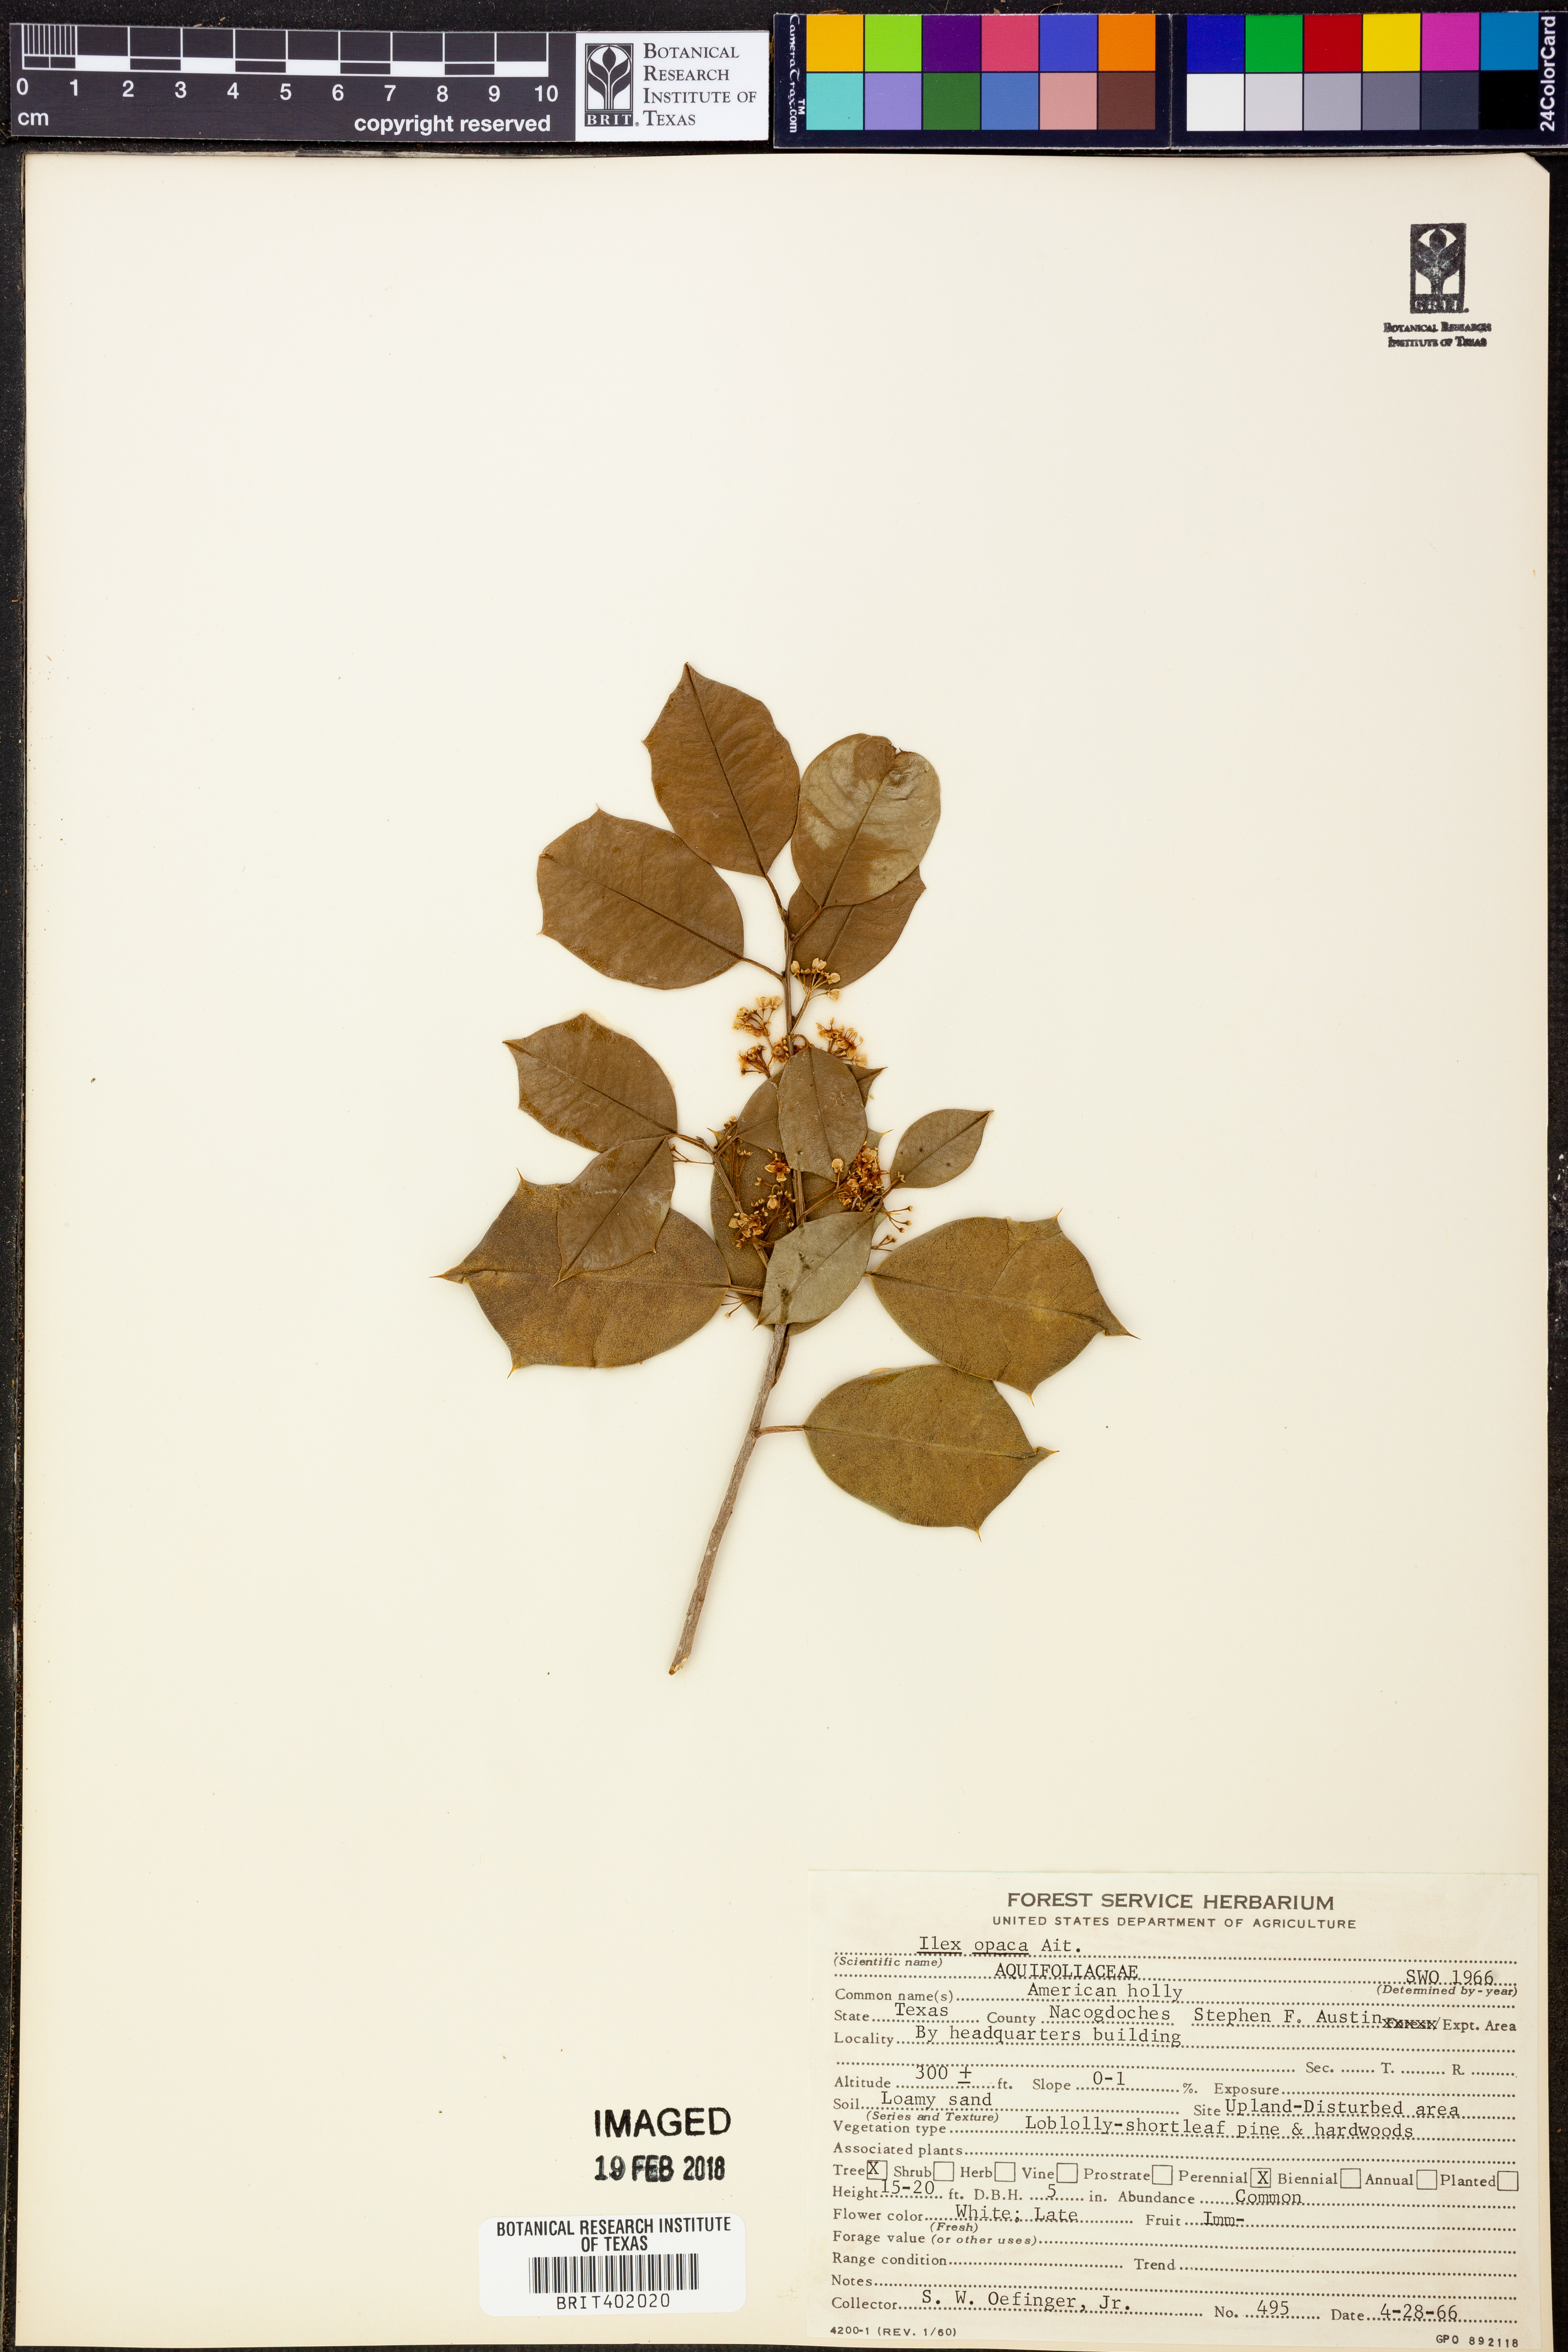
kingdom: Plantae
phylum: Tracheophyta
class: Magnoliopsida
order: Aquifoliales
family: Aquifoliaceae
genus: Ilex
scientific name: Ilex opaca
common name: American holly
